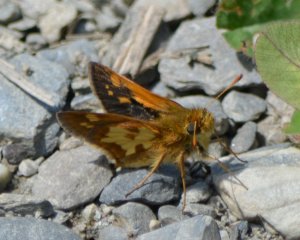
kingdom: Animalia
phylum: Arthropoda
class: Insecta
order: Lepidoptera
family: Hesperiidae
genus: Polites
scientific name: Polites coras
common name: Peck's Skipper
